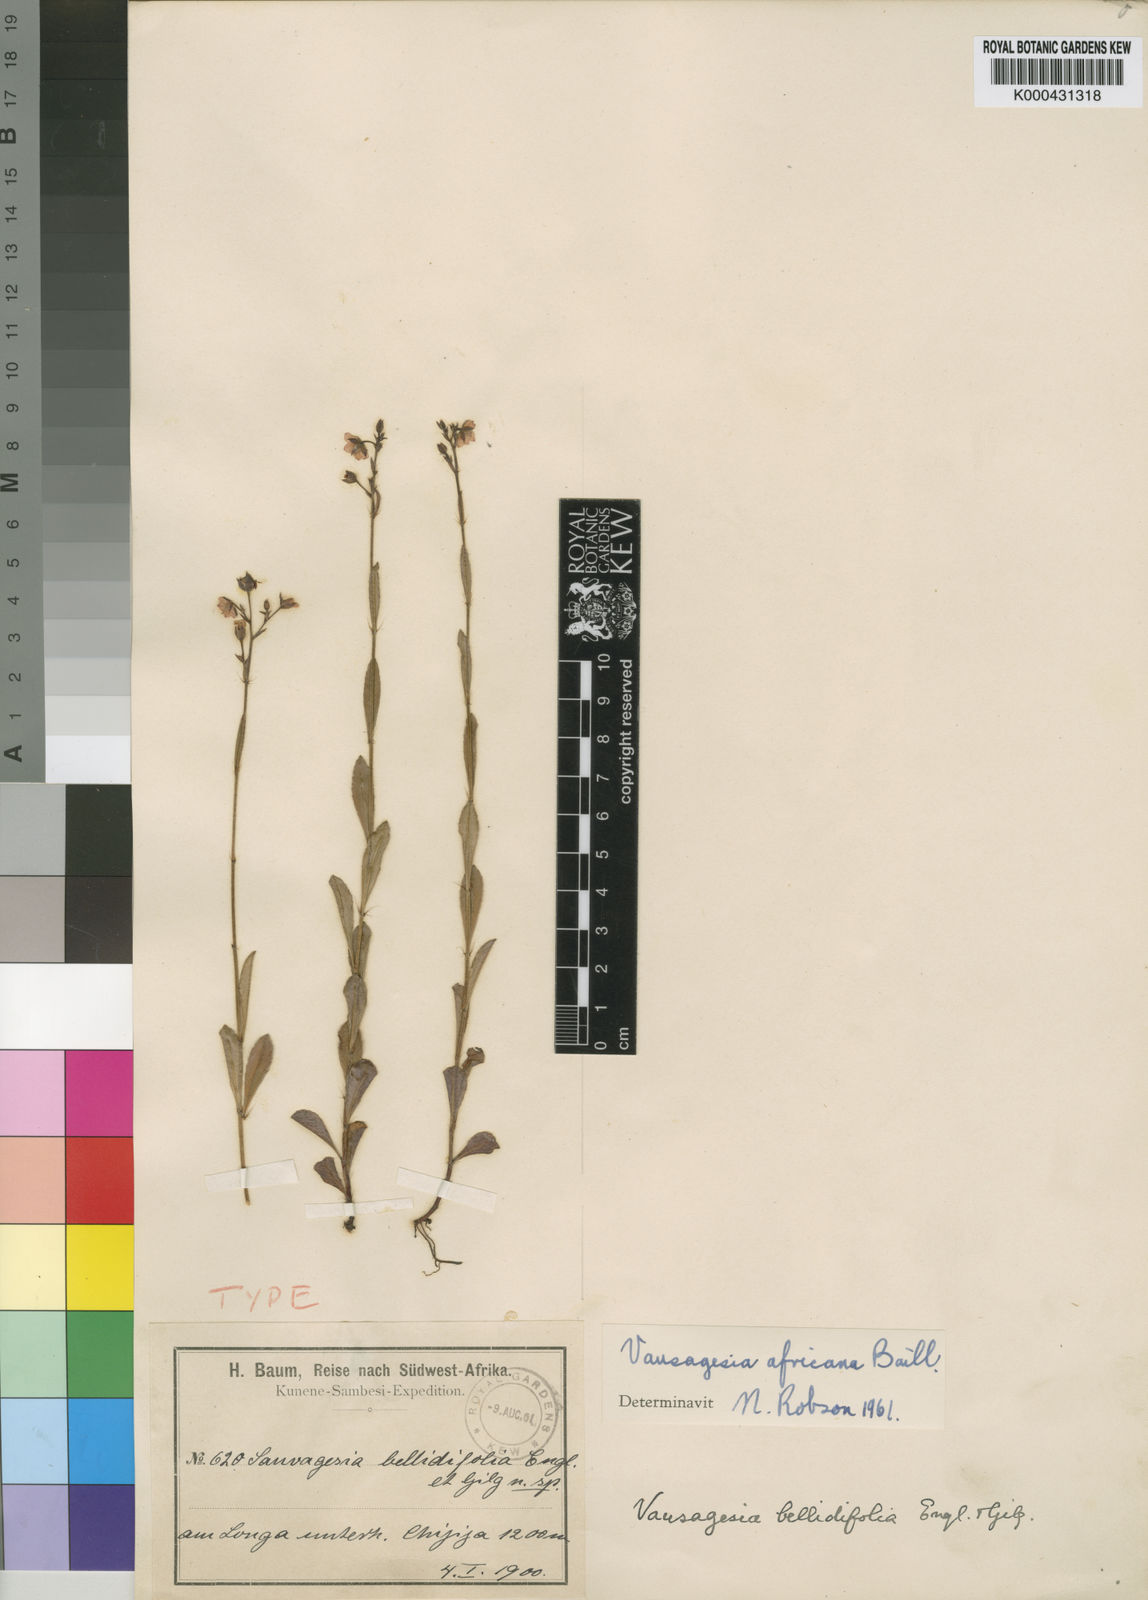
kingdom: Plantae
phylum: Tracheophyta
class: Magnoliopsida
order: Malpighiales
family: Ochnaceae
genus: Sauvagesia
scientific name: Sauvagesia africana
